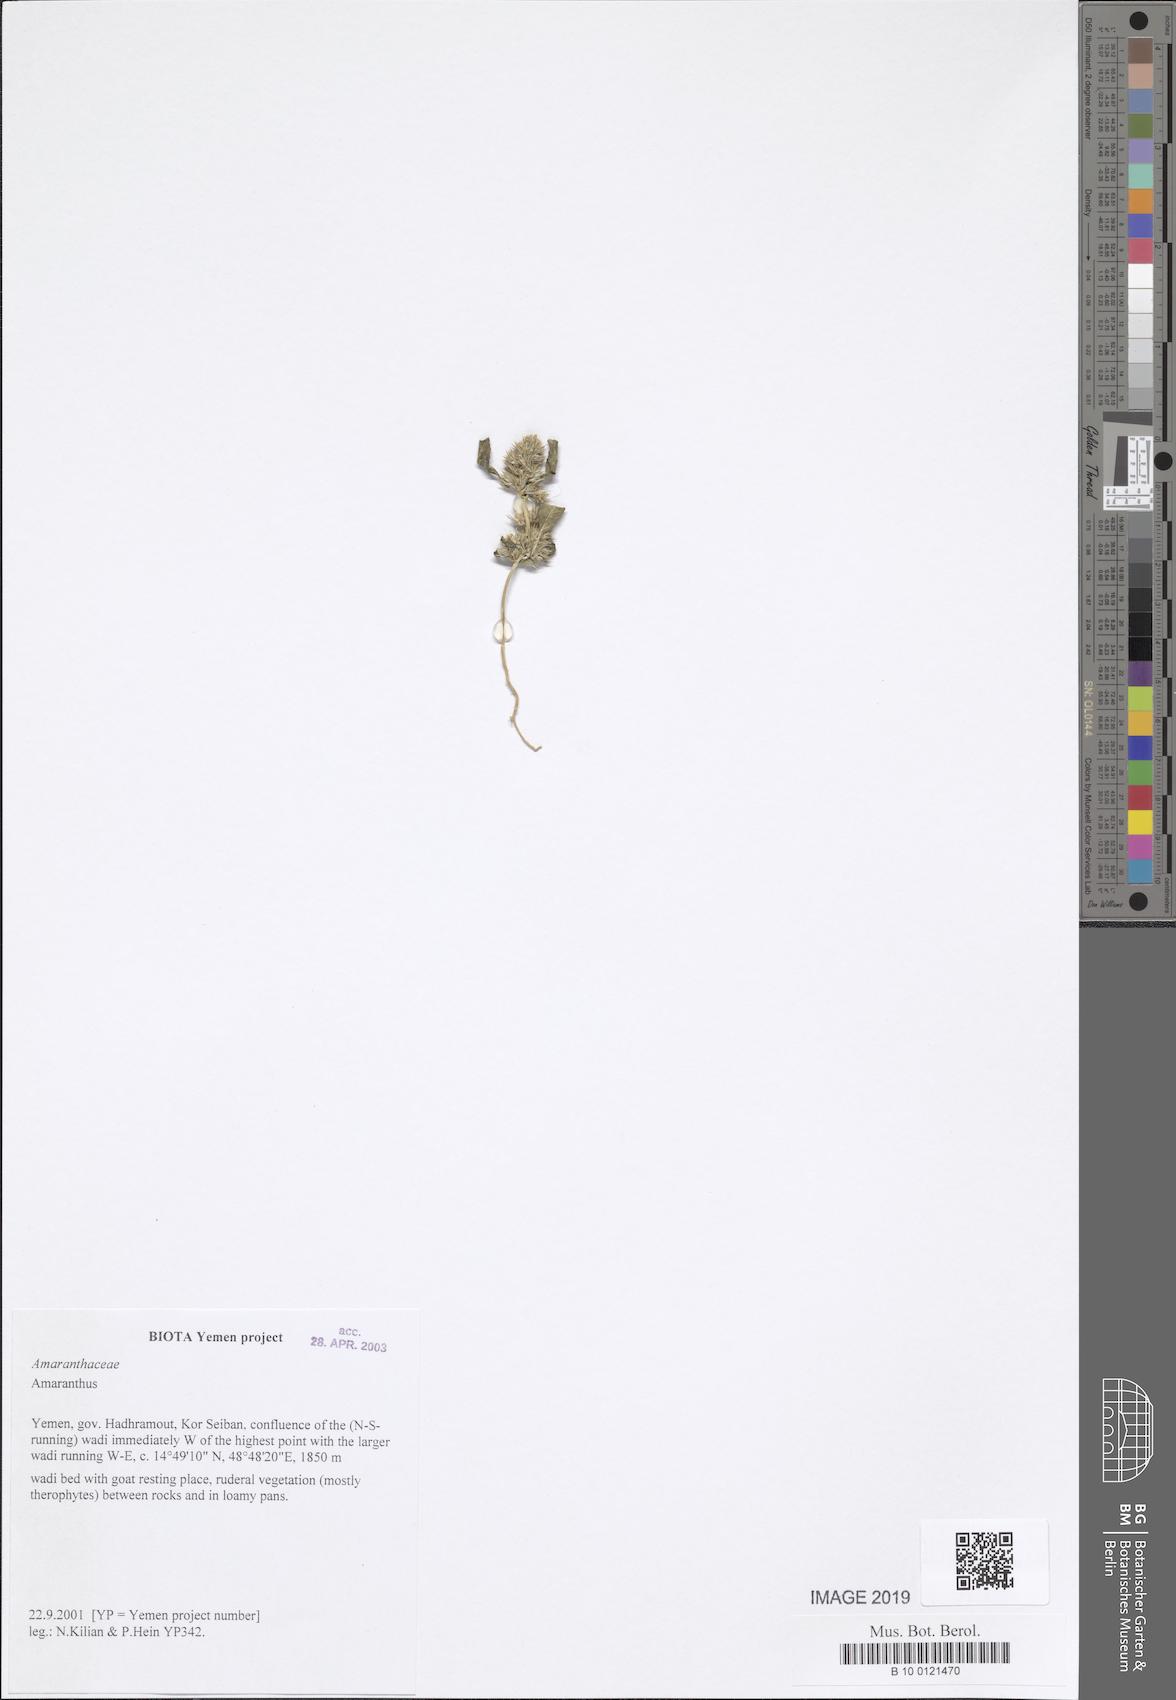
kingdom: Plantae
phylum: Tracheophyta
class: Magnoliopsida
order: Caryophyllales
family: Amaranthaceae
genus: Amaranthus
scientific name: Amaranthus
